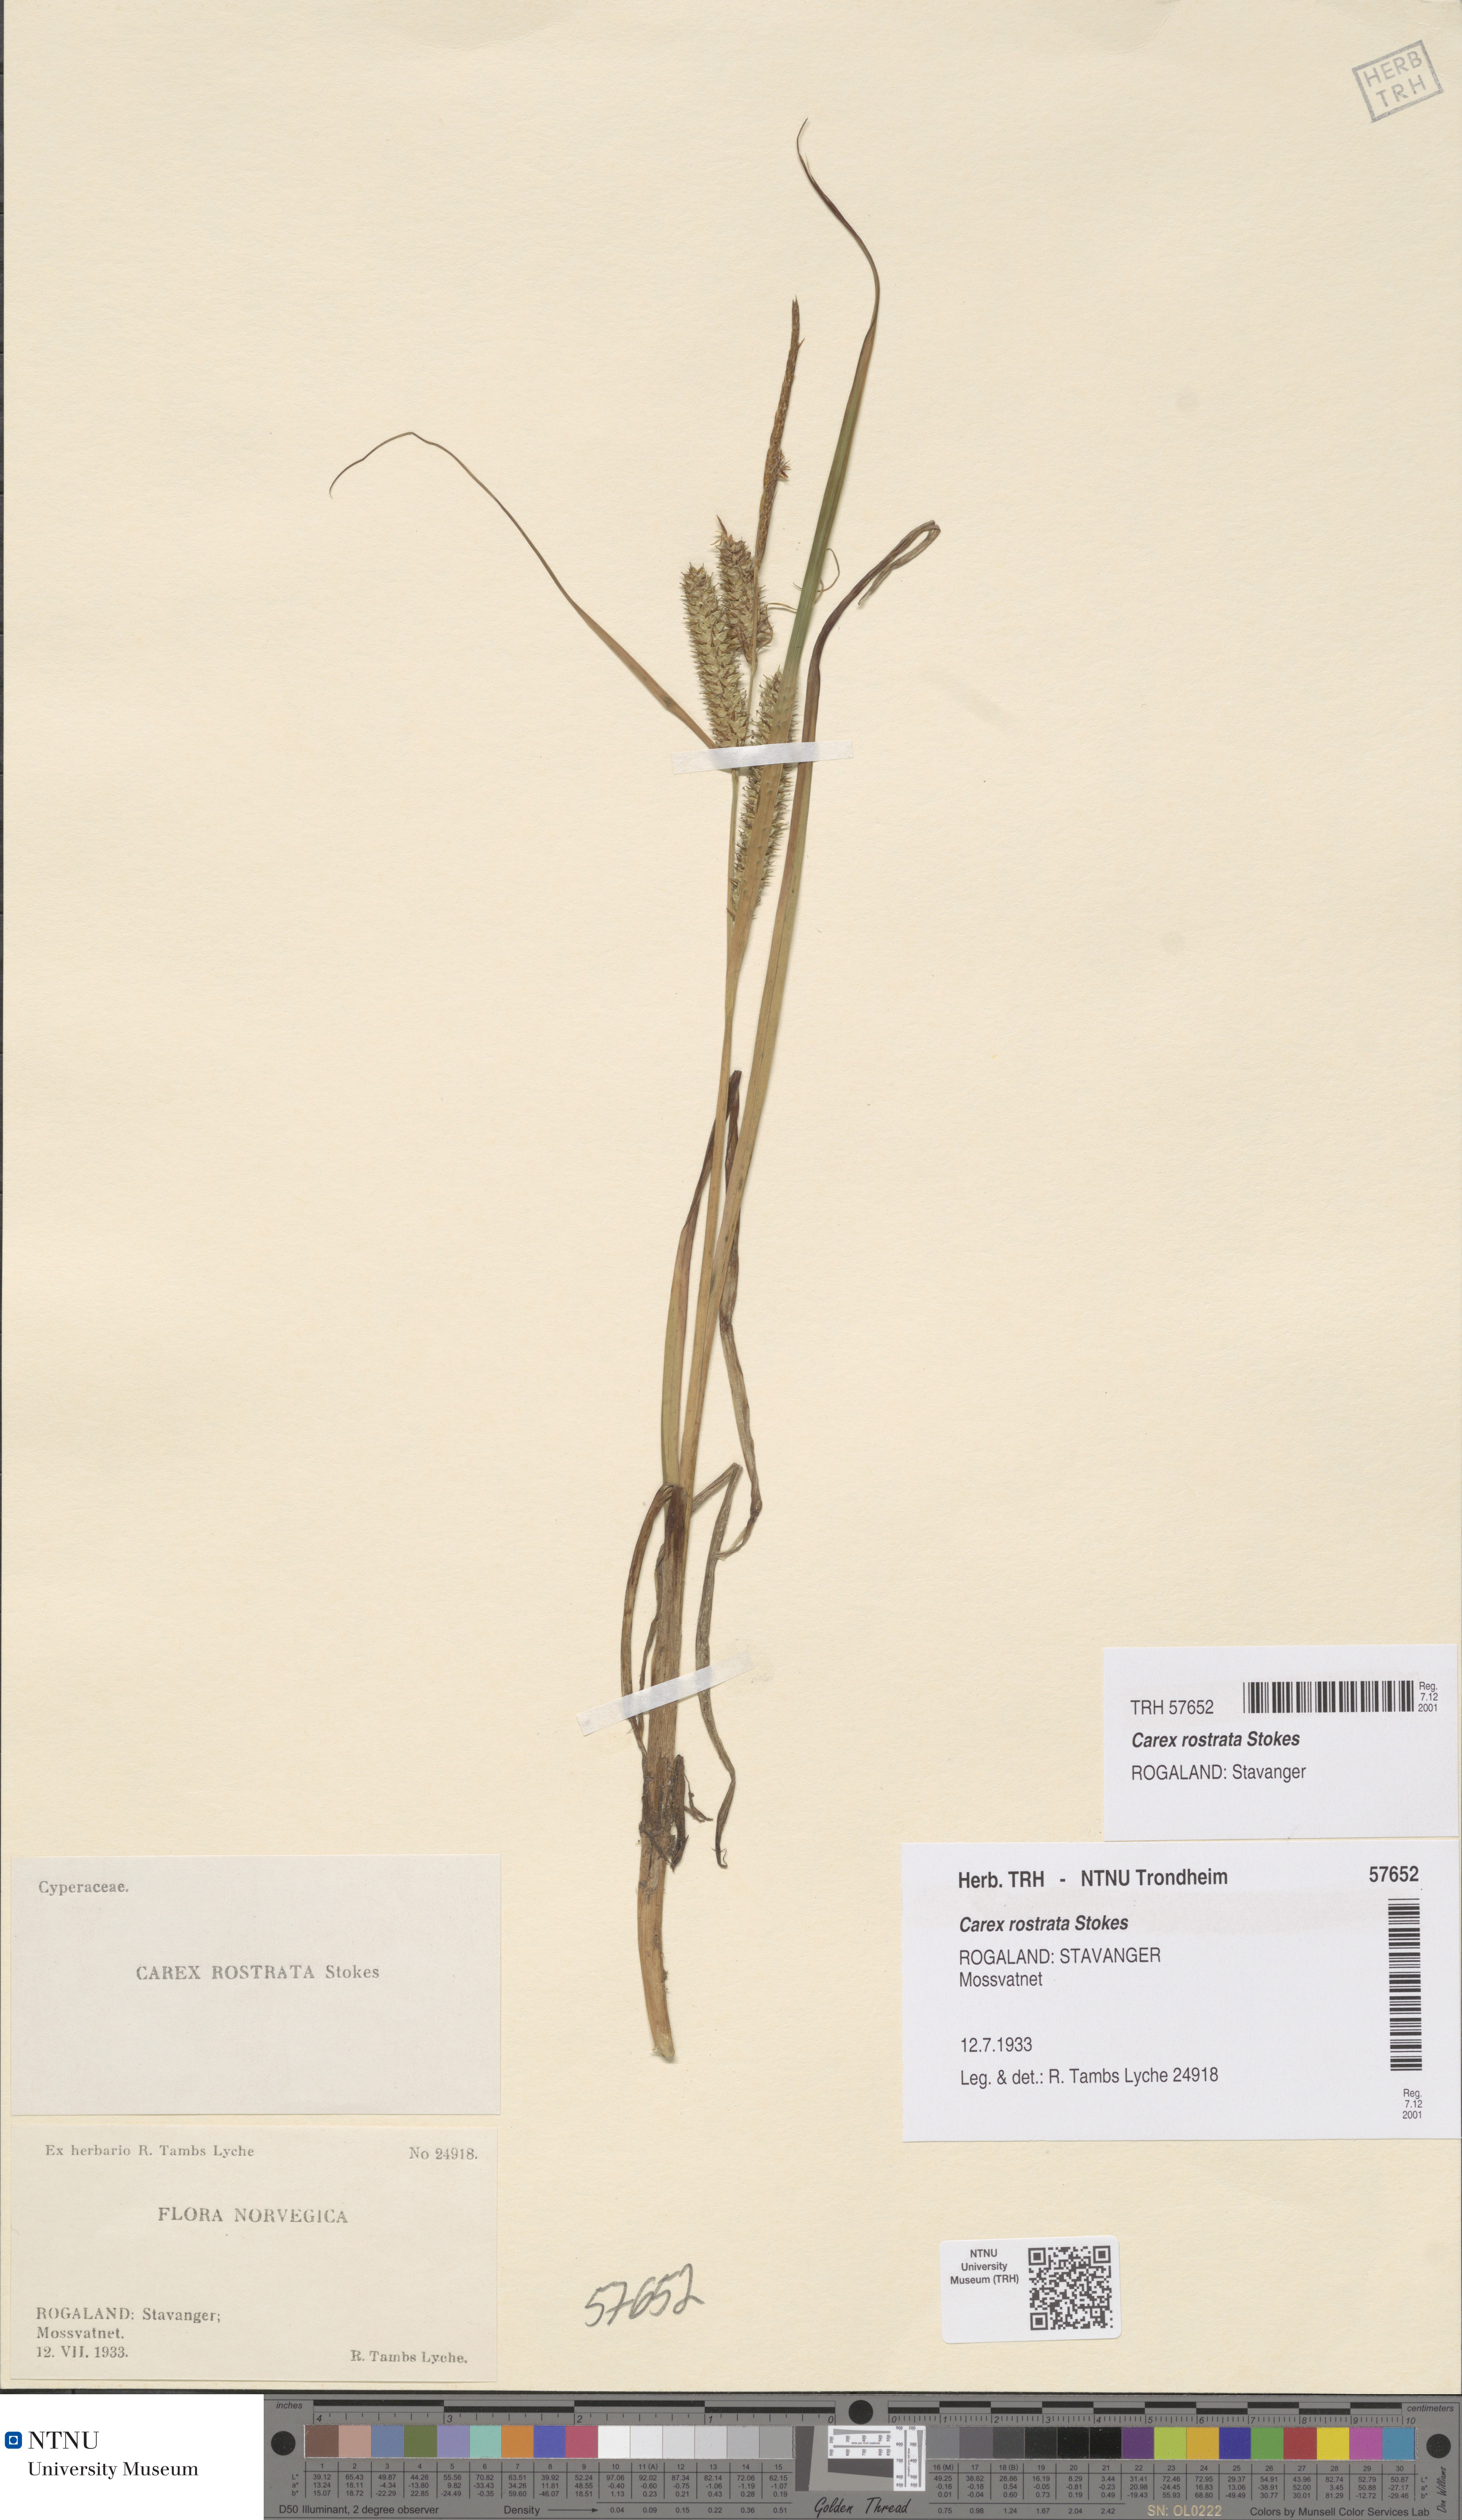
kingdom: Plantae
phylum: Tracheophyta
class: Liliopsida
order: Poales
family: Cyperaceae
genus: Carex
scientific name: Carex rostrata
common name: Bottle sedge
